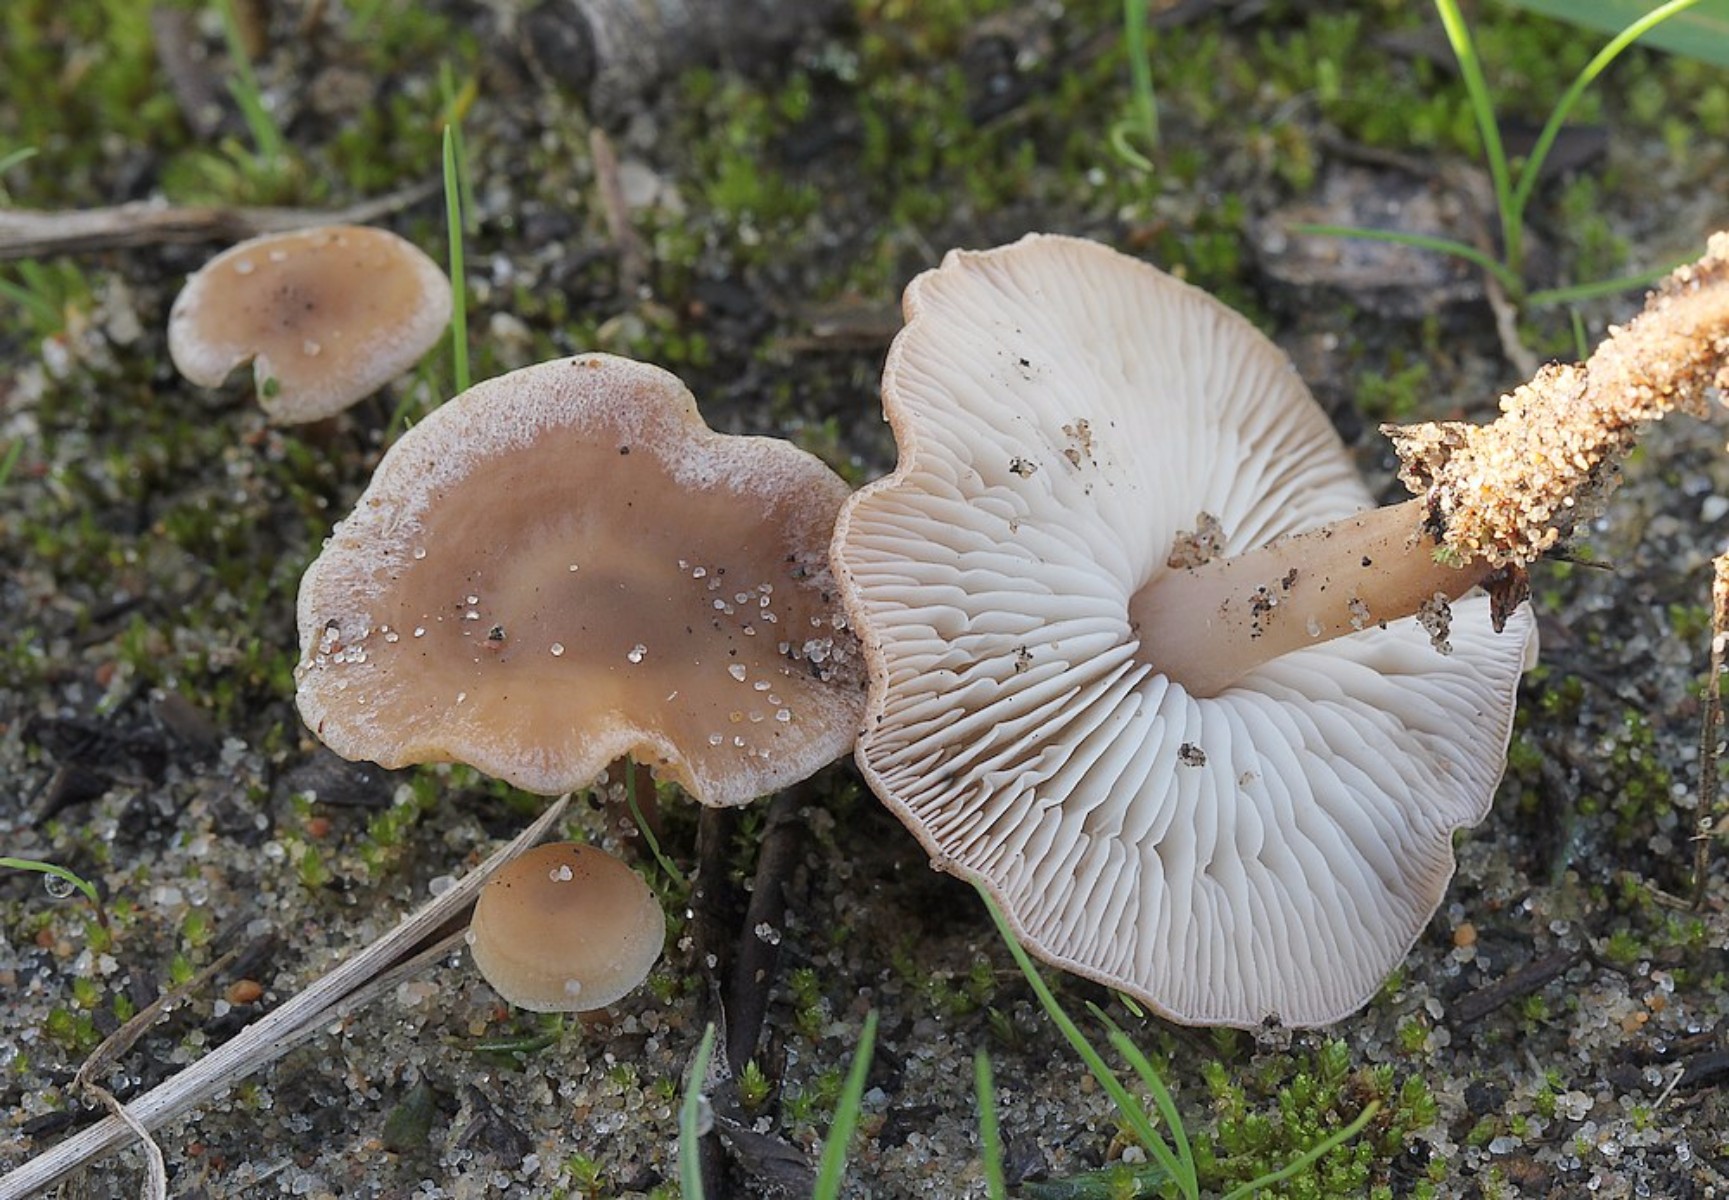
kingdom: Fungi
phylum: Basidiomycota
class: Agaricomycetes
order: Agaricales
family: Marasmiaceae
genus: Baeospora
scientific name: Baeospora myosura
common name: koglebruskhat
